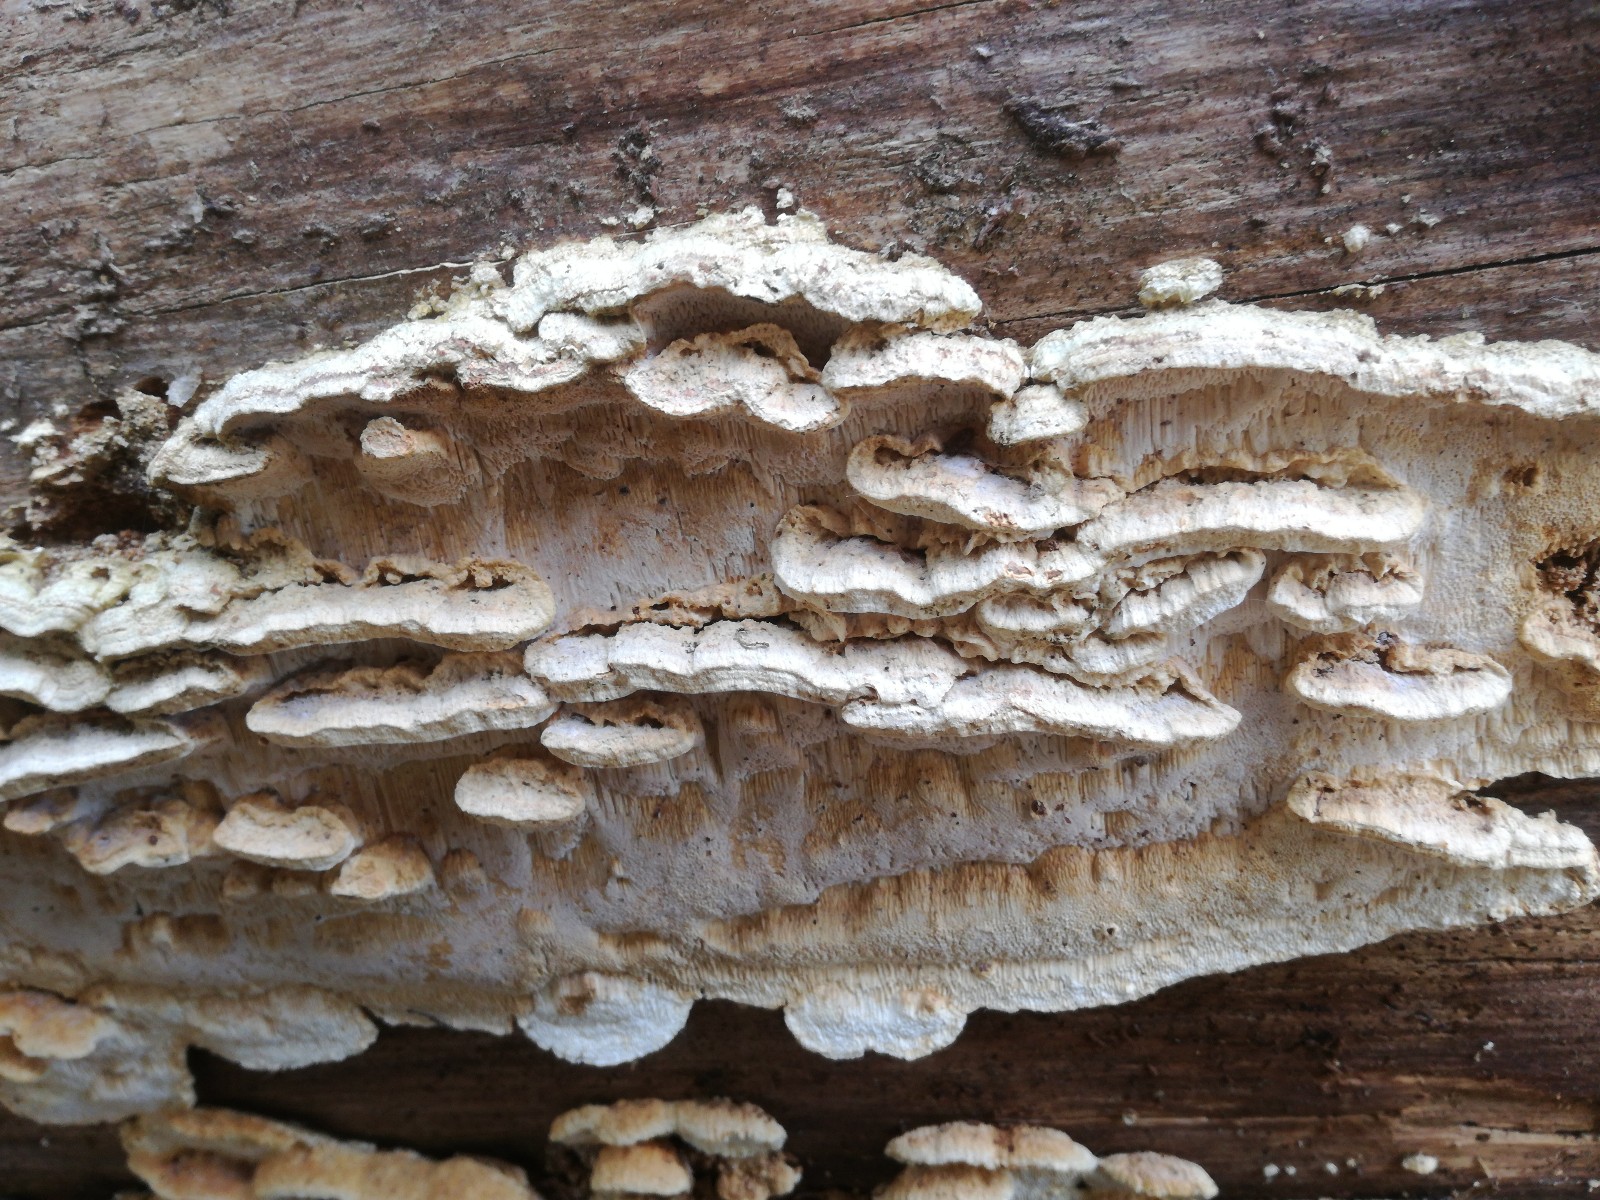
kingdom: Fungi
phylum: Basidiomycota
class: Agaricomycetes
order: Polyporales
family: Fomitopsidaceae
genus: Neoantrodia
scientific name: Neoantrodia serialis
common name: række-sejporesvamp
